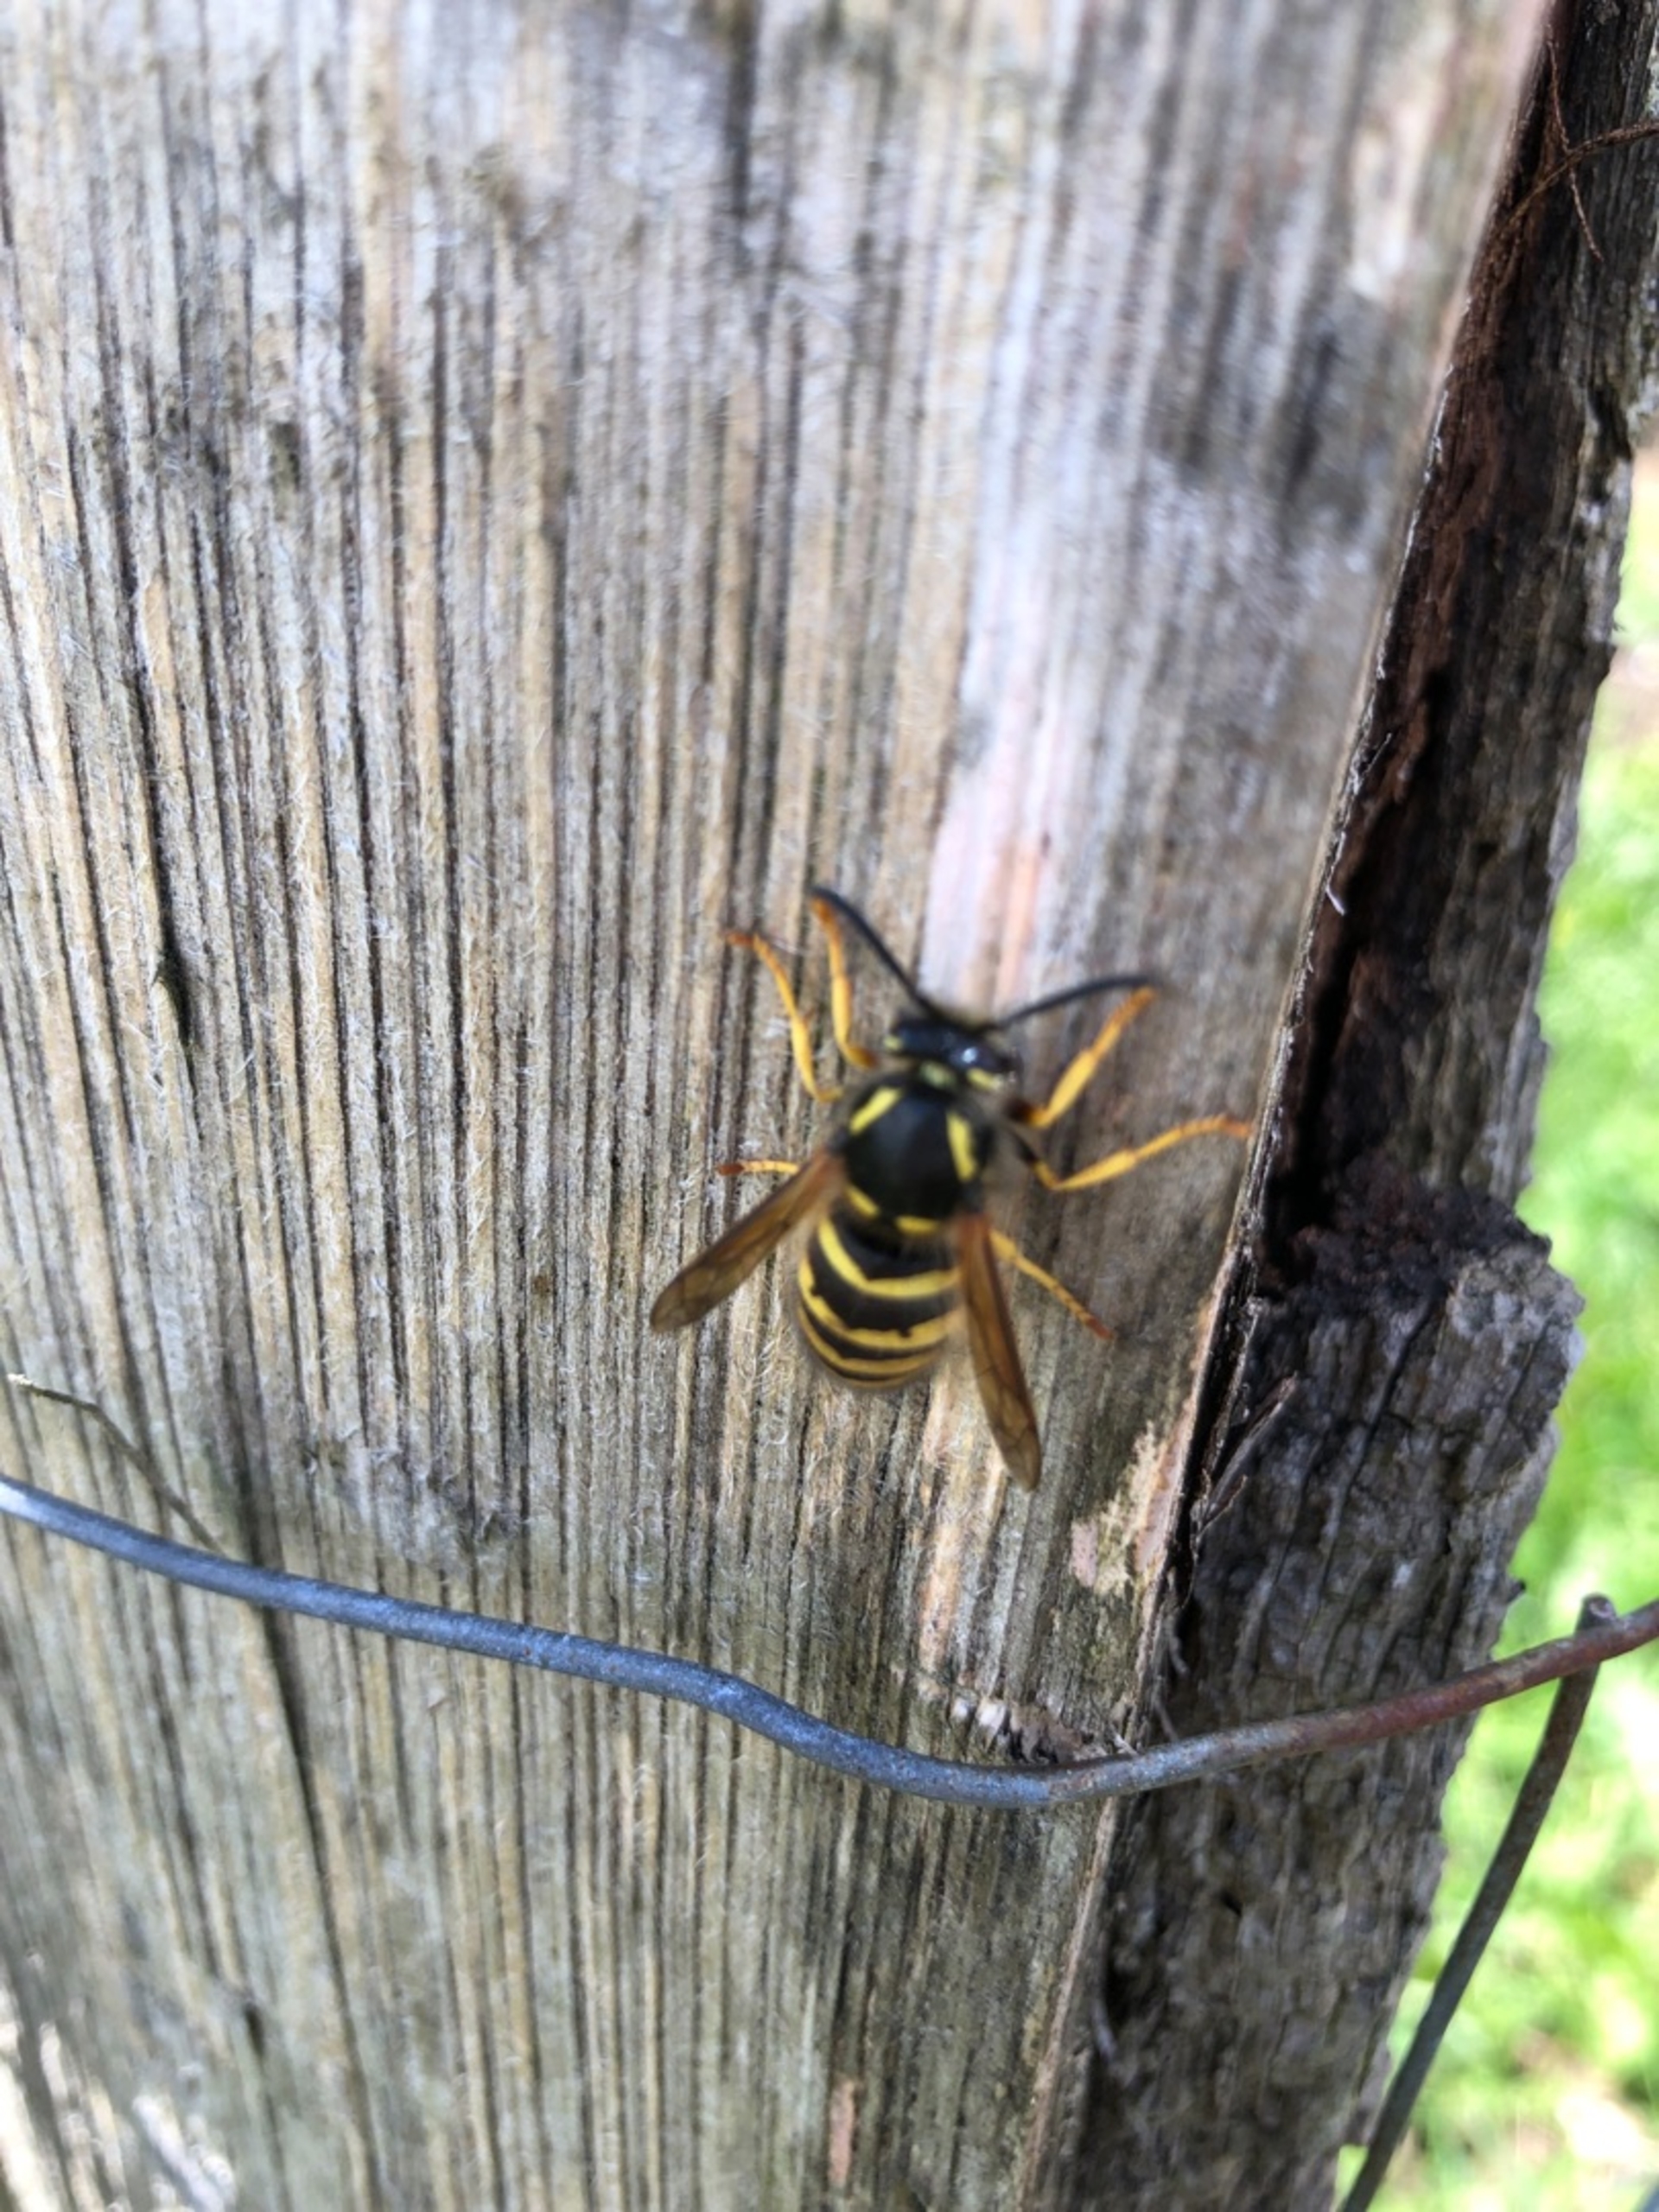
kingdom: Animalia
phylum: Arthropoda
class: Insecta
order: Hymenoptera
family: Vespidae
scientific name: Vespidae
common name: Gedehamse
